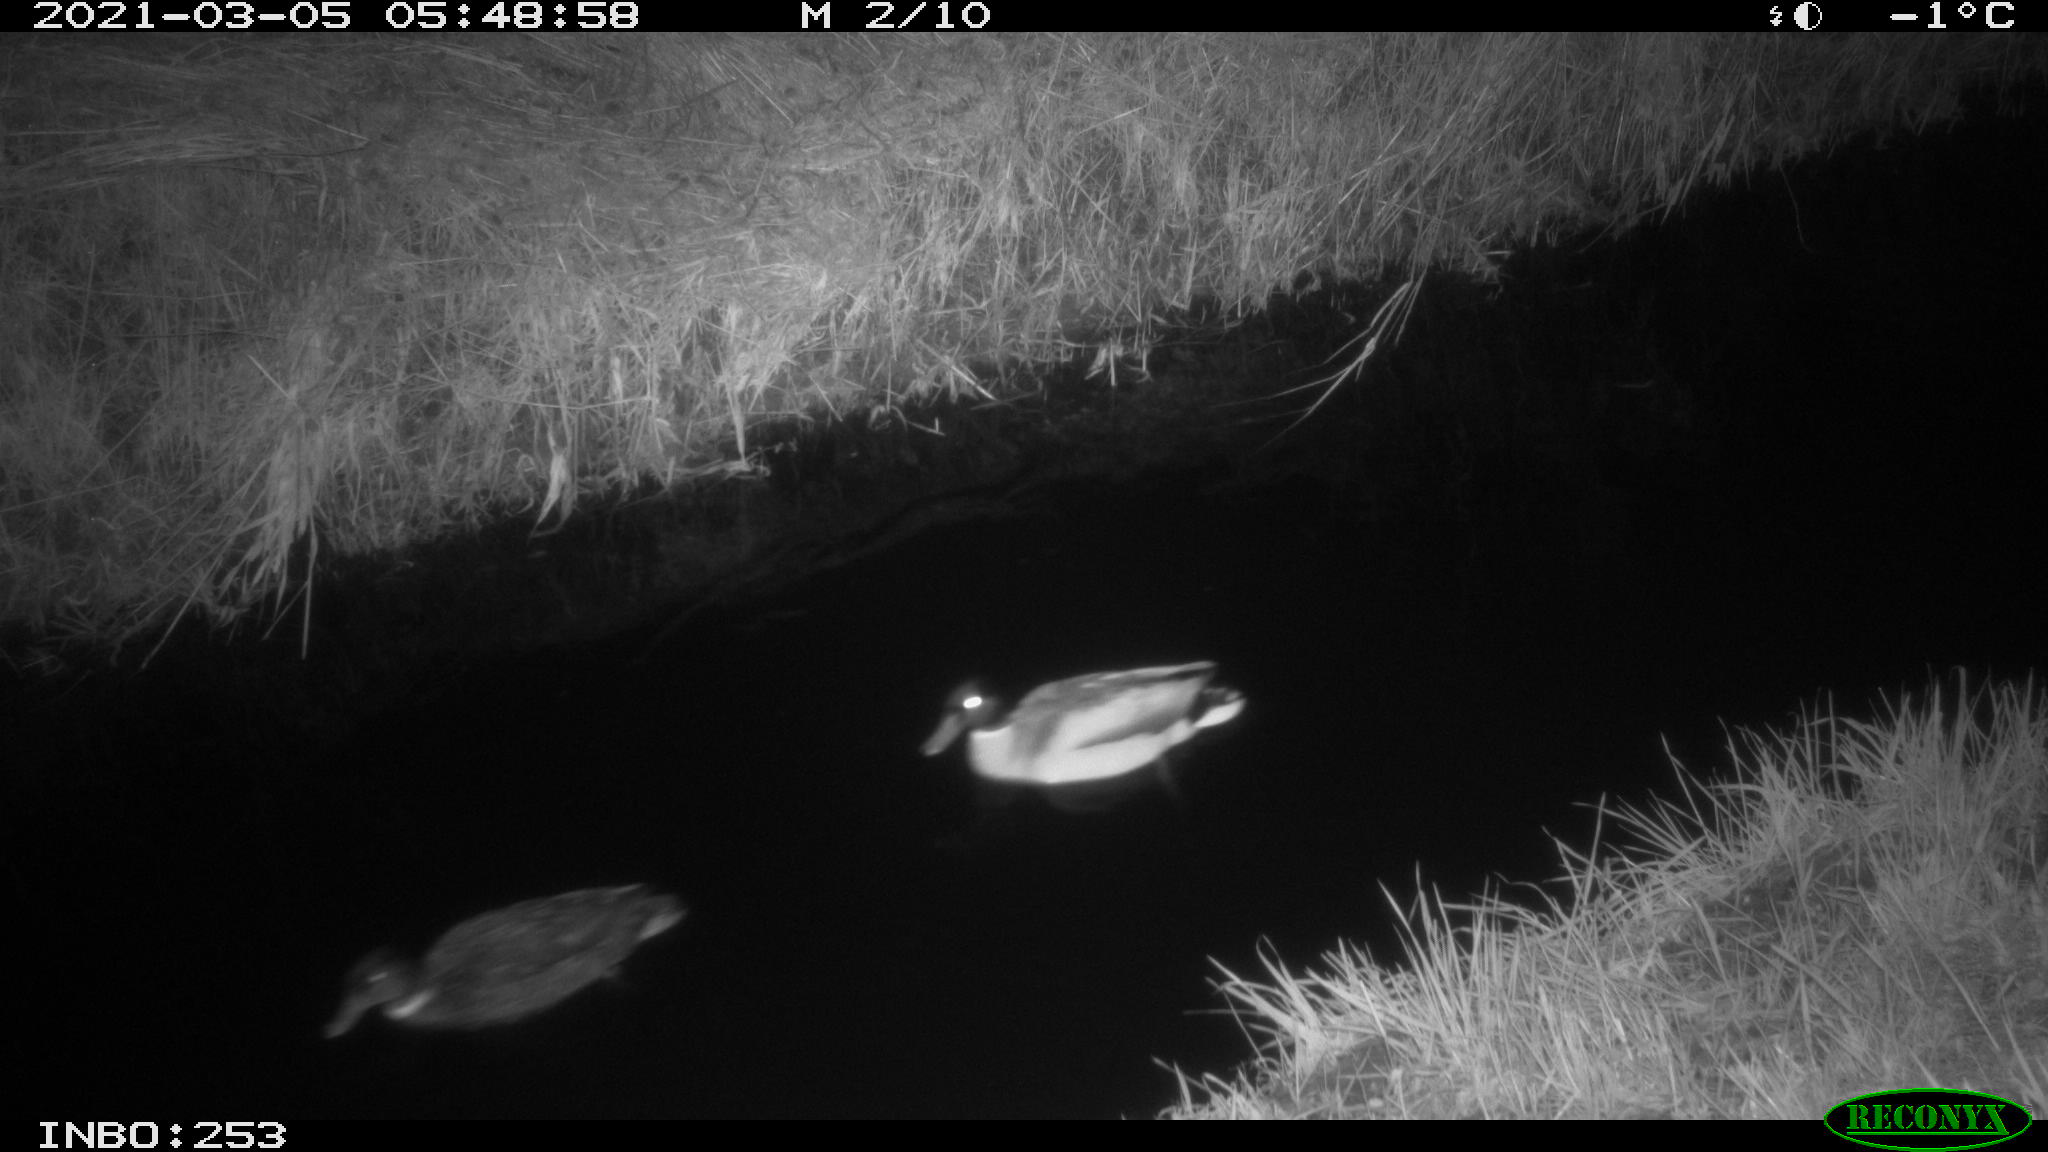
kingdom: Animalia
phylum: Chordata
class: Aves
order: Anseriformes
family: Anatidae
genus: Anas
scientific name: Anas platyrhynchos
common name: Mallard
